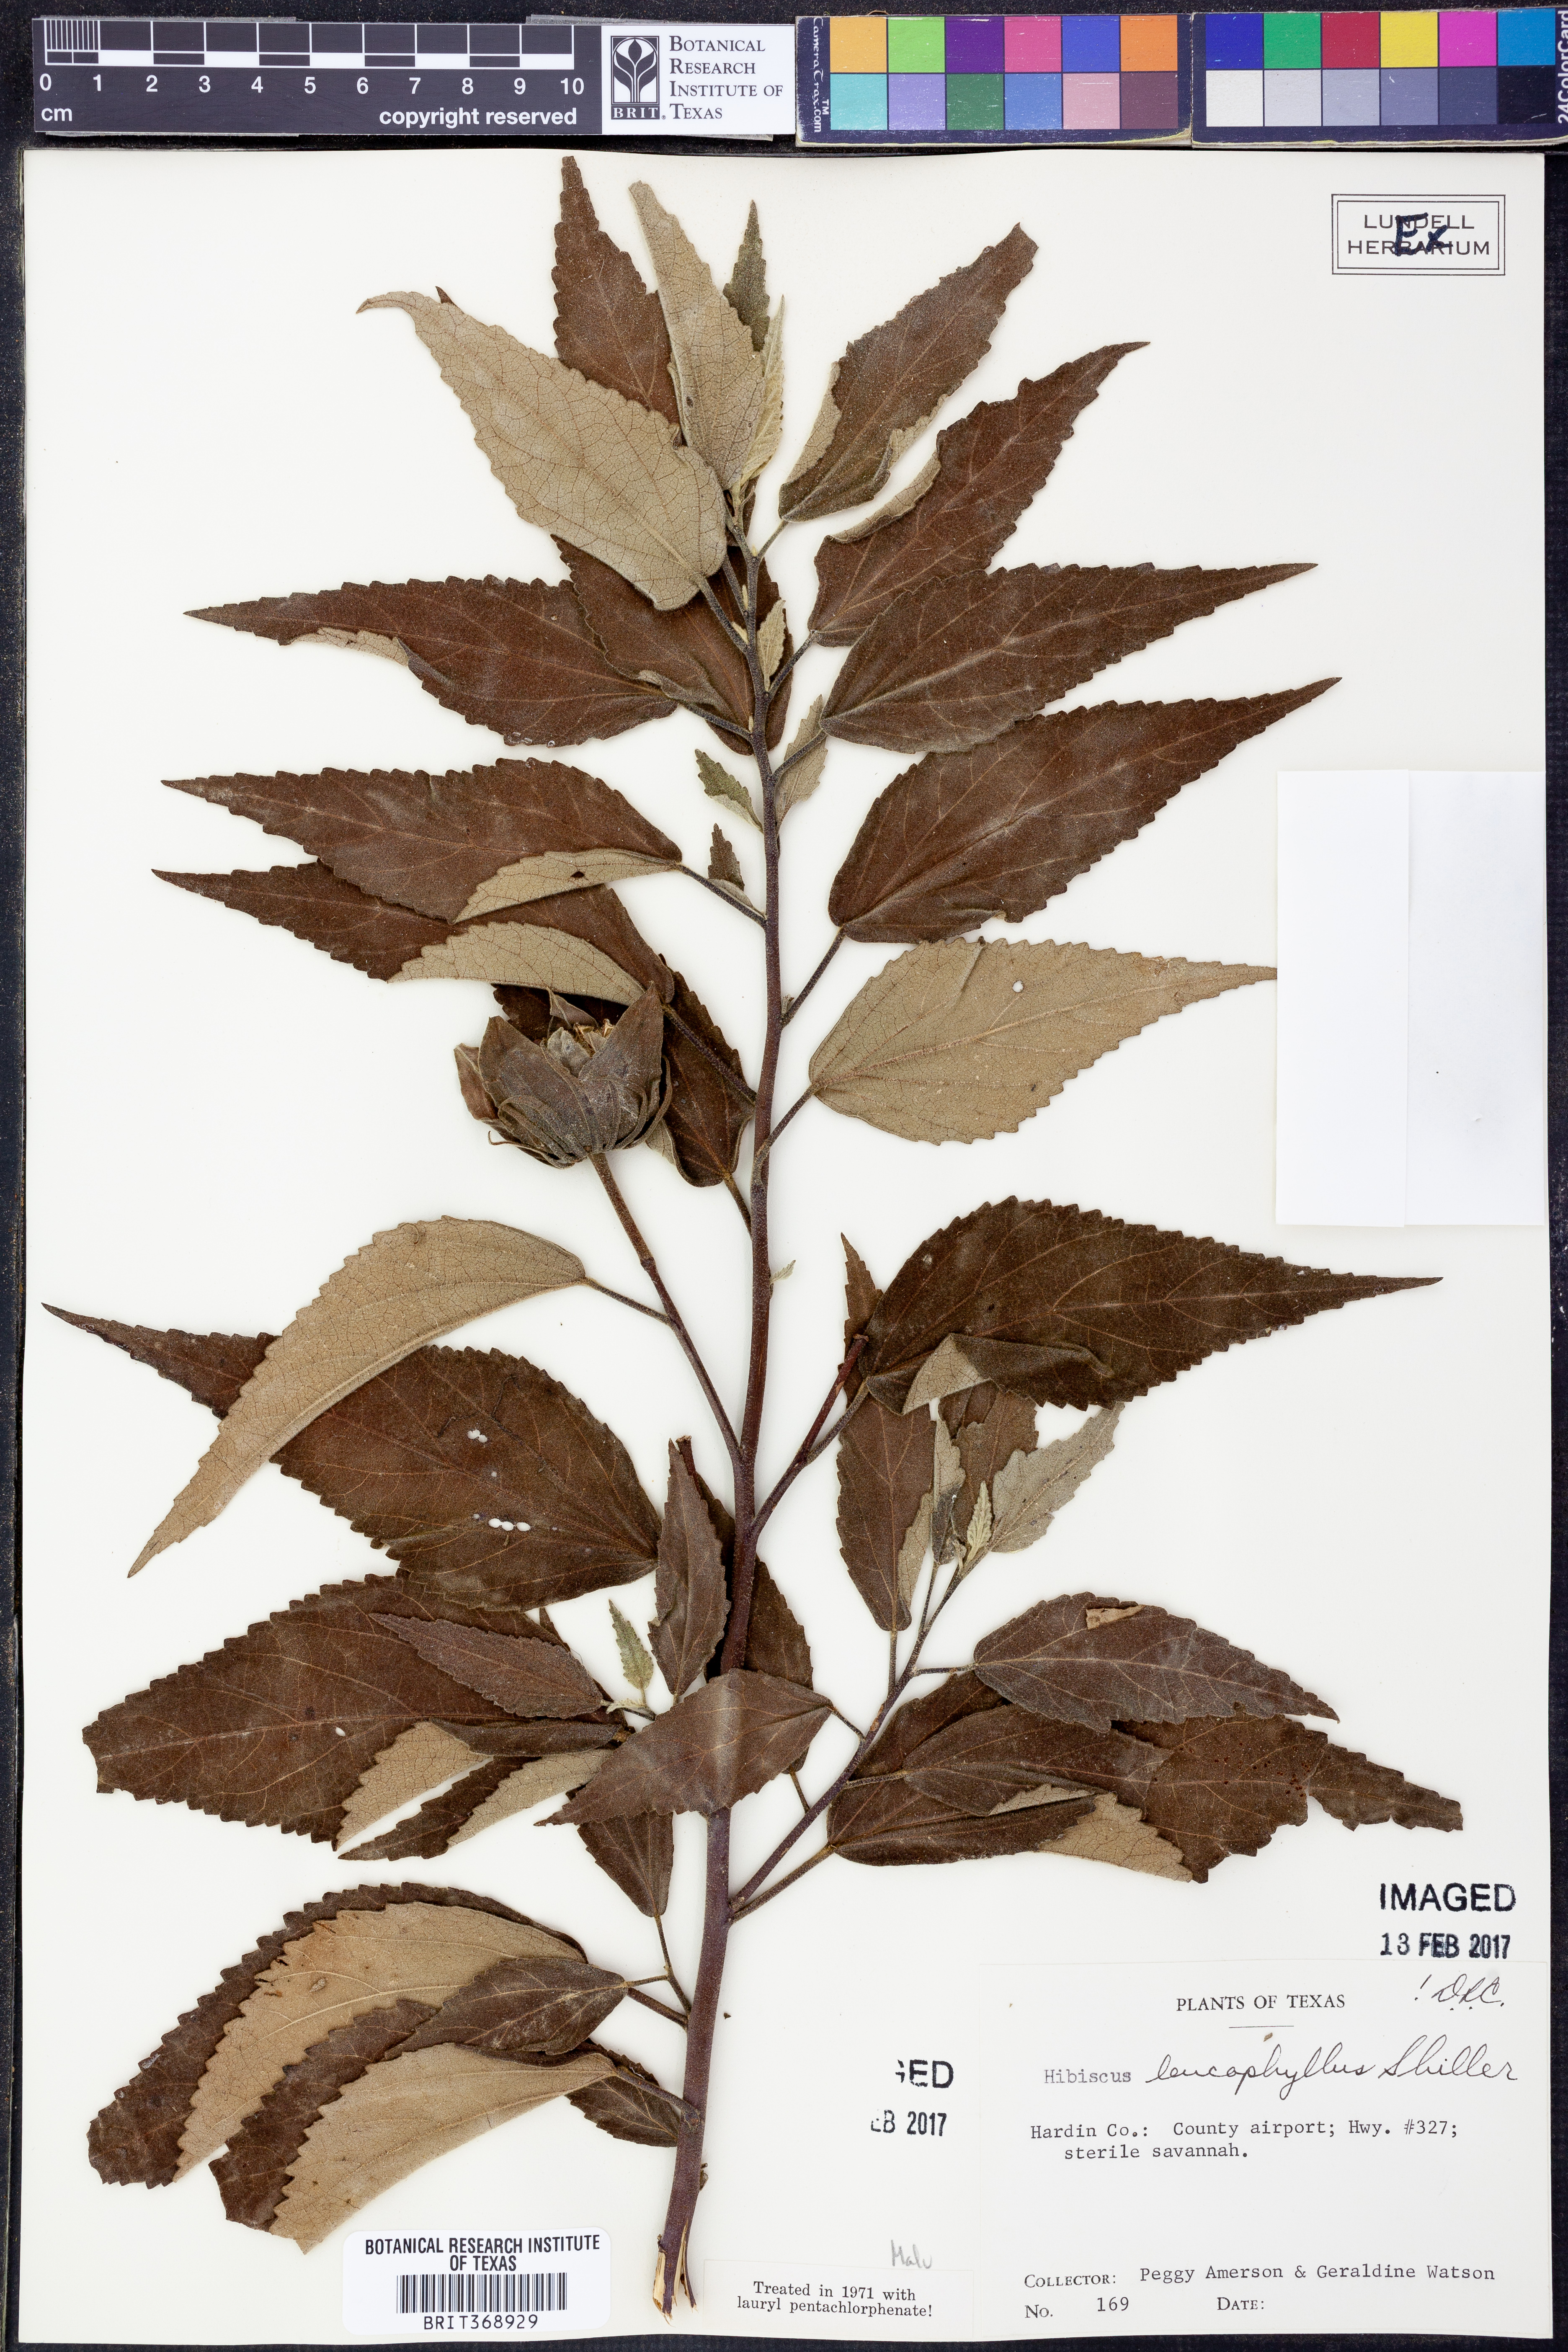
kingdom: Plantae
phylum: Tracheophyta
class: Magnoliopsida
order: Malvales
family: Malvaceae
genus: Hibiscus
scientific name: Hibiscus moscheutos
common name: Common rose-mallow
